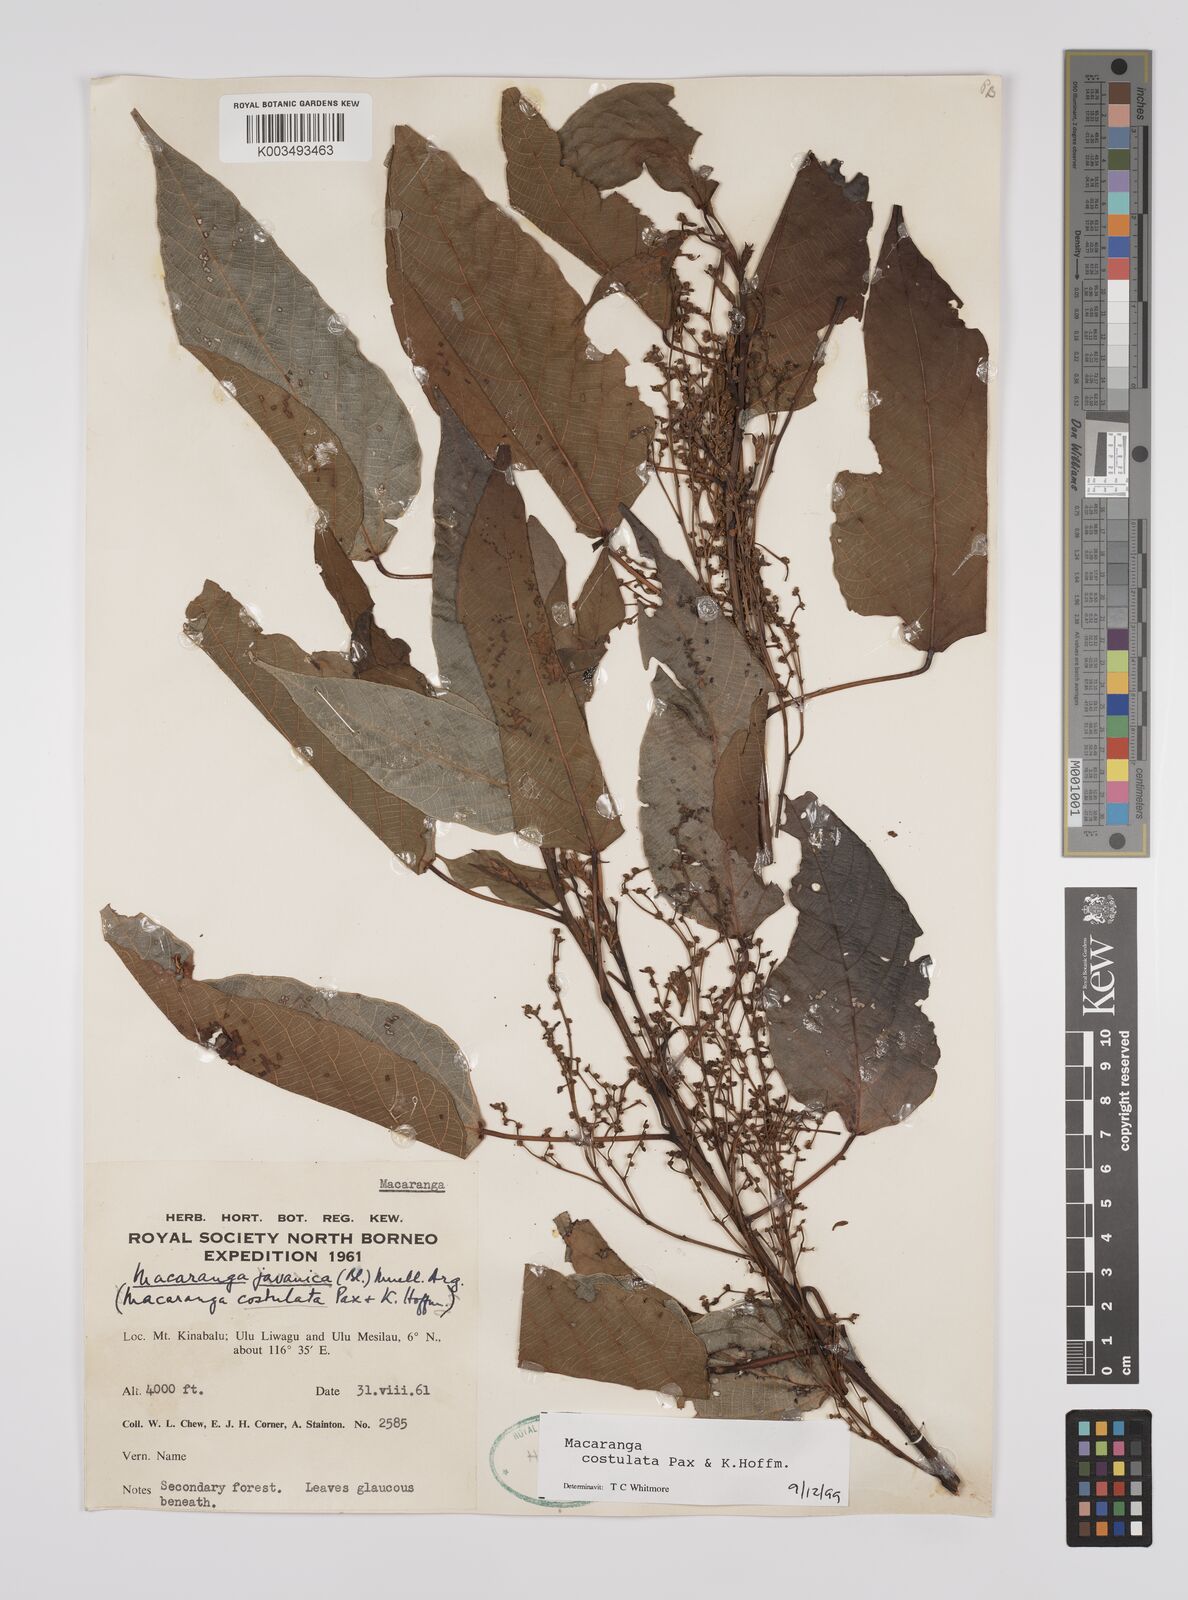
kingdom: Plantae
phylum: Tracheophyta
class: Magnoliopsida
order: Malpighiales
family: Euphorbiaceae
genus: Macaranga
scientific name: Macaranga costulata
